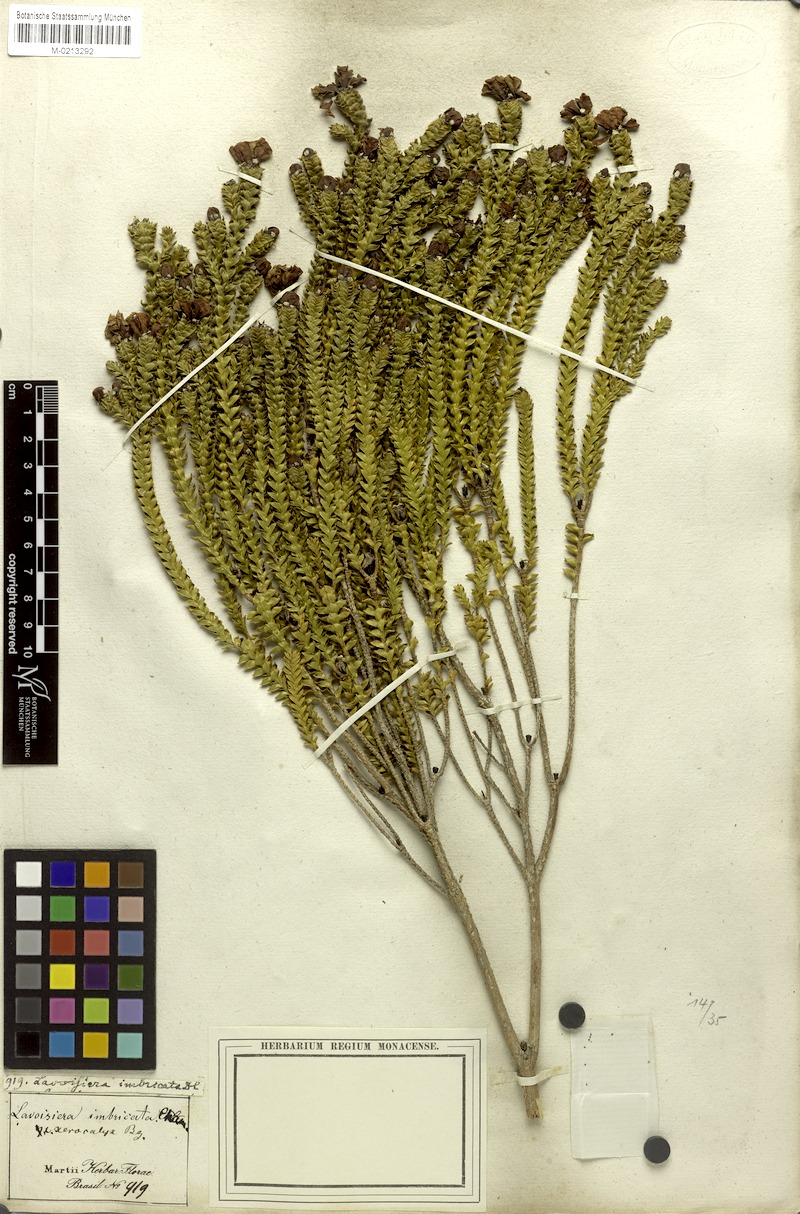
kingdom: Plantae
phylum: Tracheophyta
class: Magnoliopsida
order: Myrtales
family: Melastomataceae
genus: Microlicia
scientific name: Microlicia cataphracta
